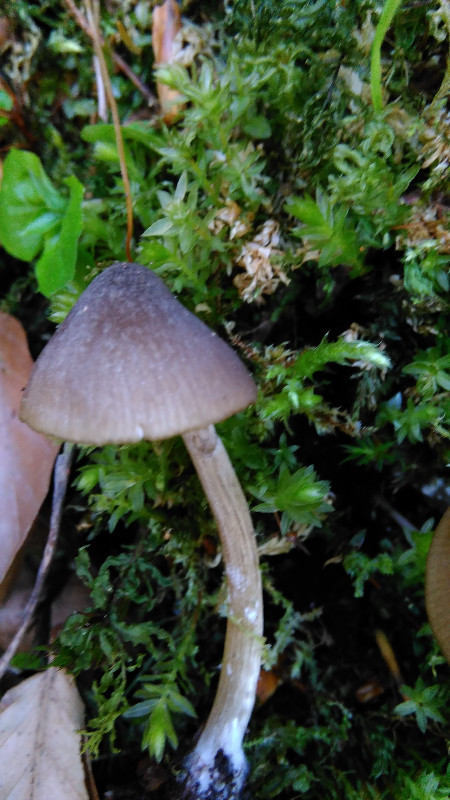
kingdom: Fungi
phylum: Basidiomycota
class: Agaricomycetes
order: Agaricales
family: Entolomataceae
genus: Entoloma
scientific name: Entoloma conferendum
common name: stjernesporet rødblad
